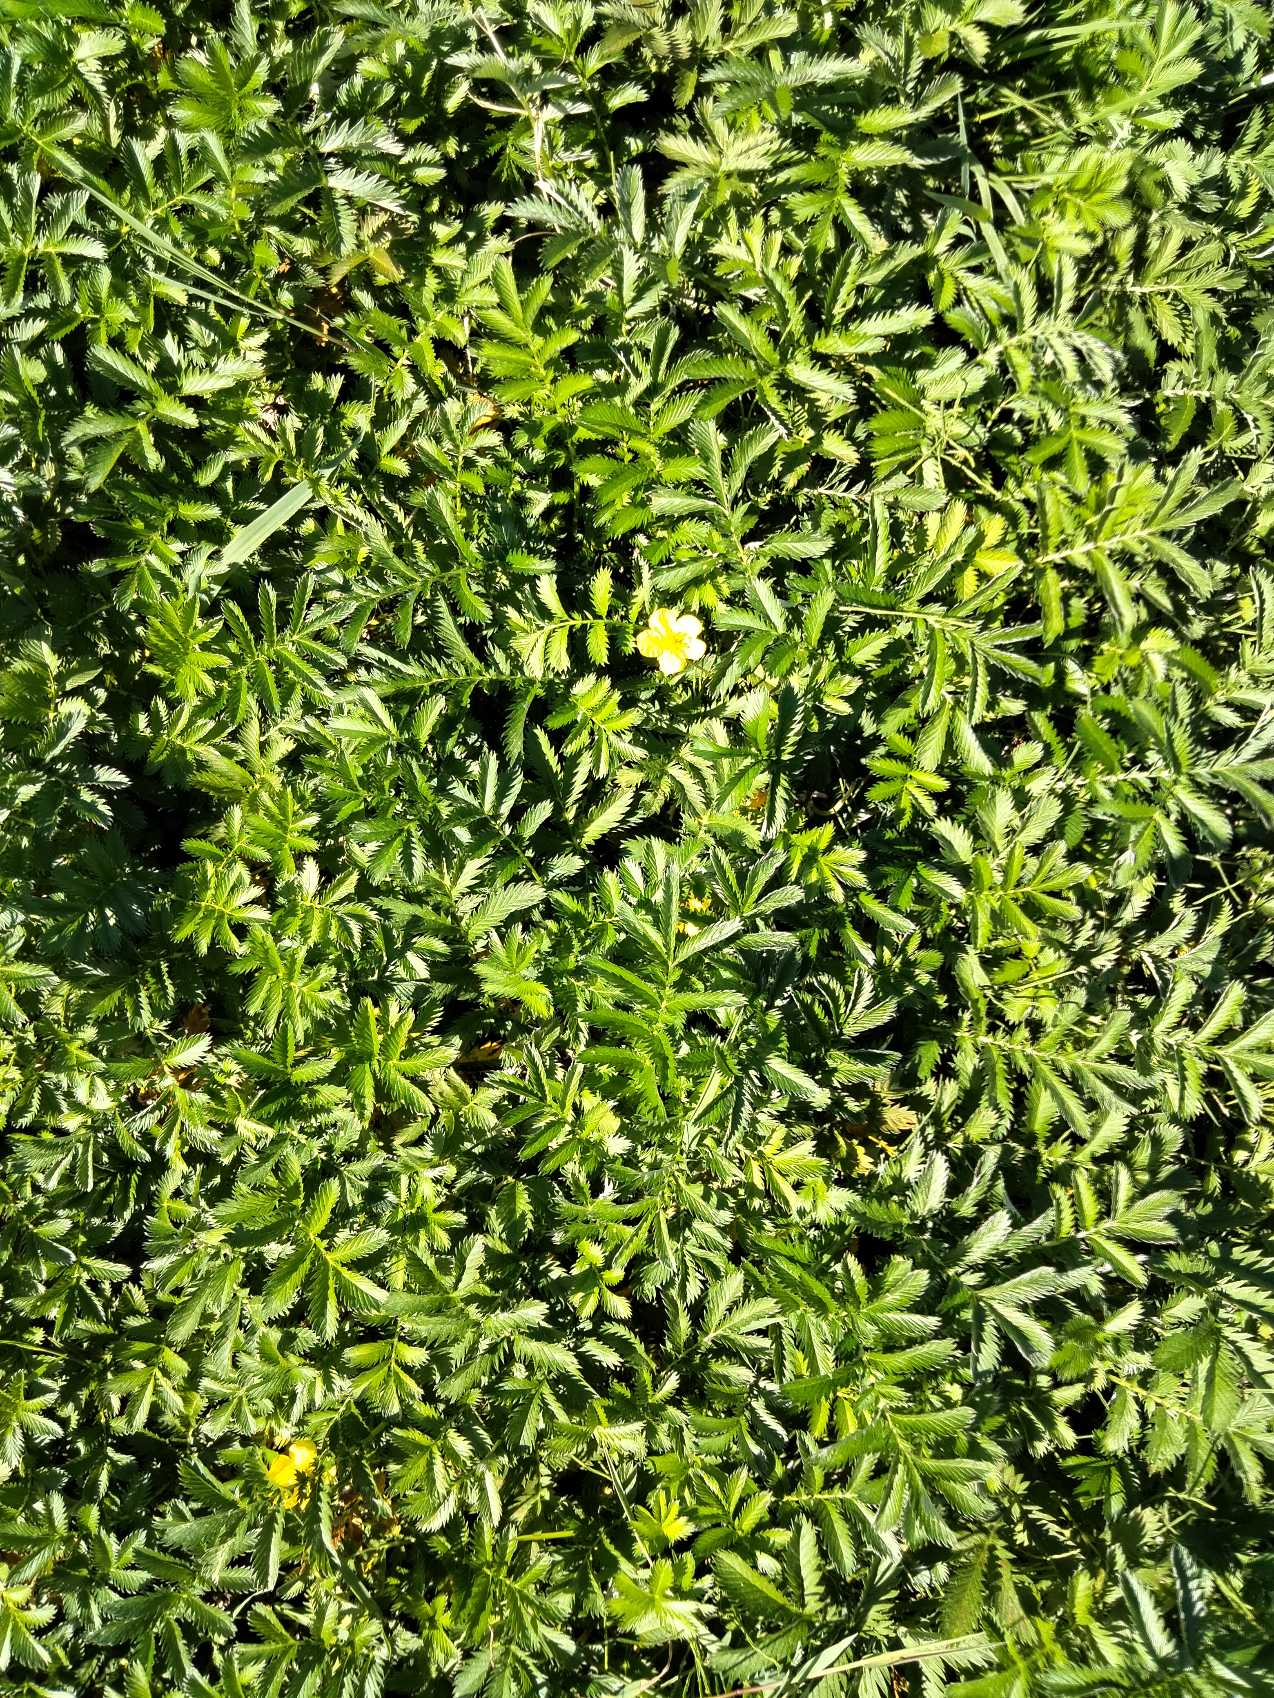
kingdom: Plantae
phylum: Tracheophyta
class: Magnoliopsida
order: Rosales
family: Rosaceae
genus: Argentina
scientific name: Argentina anserina
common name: Gåsepotentil
